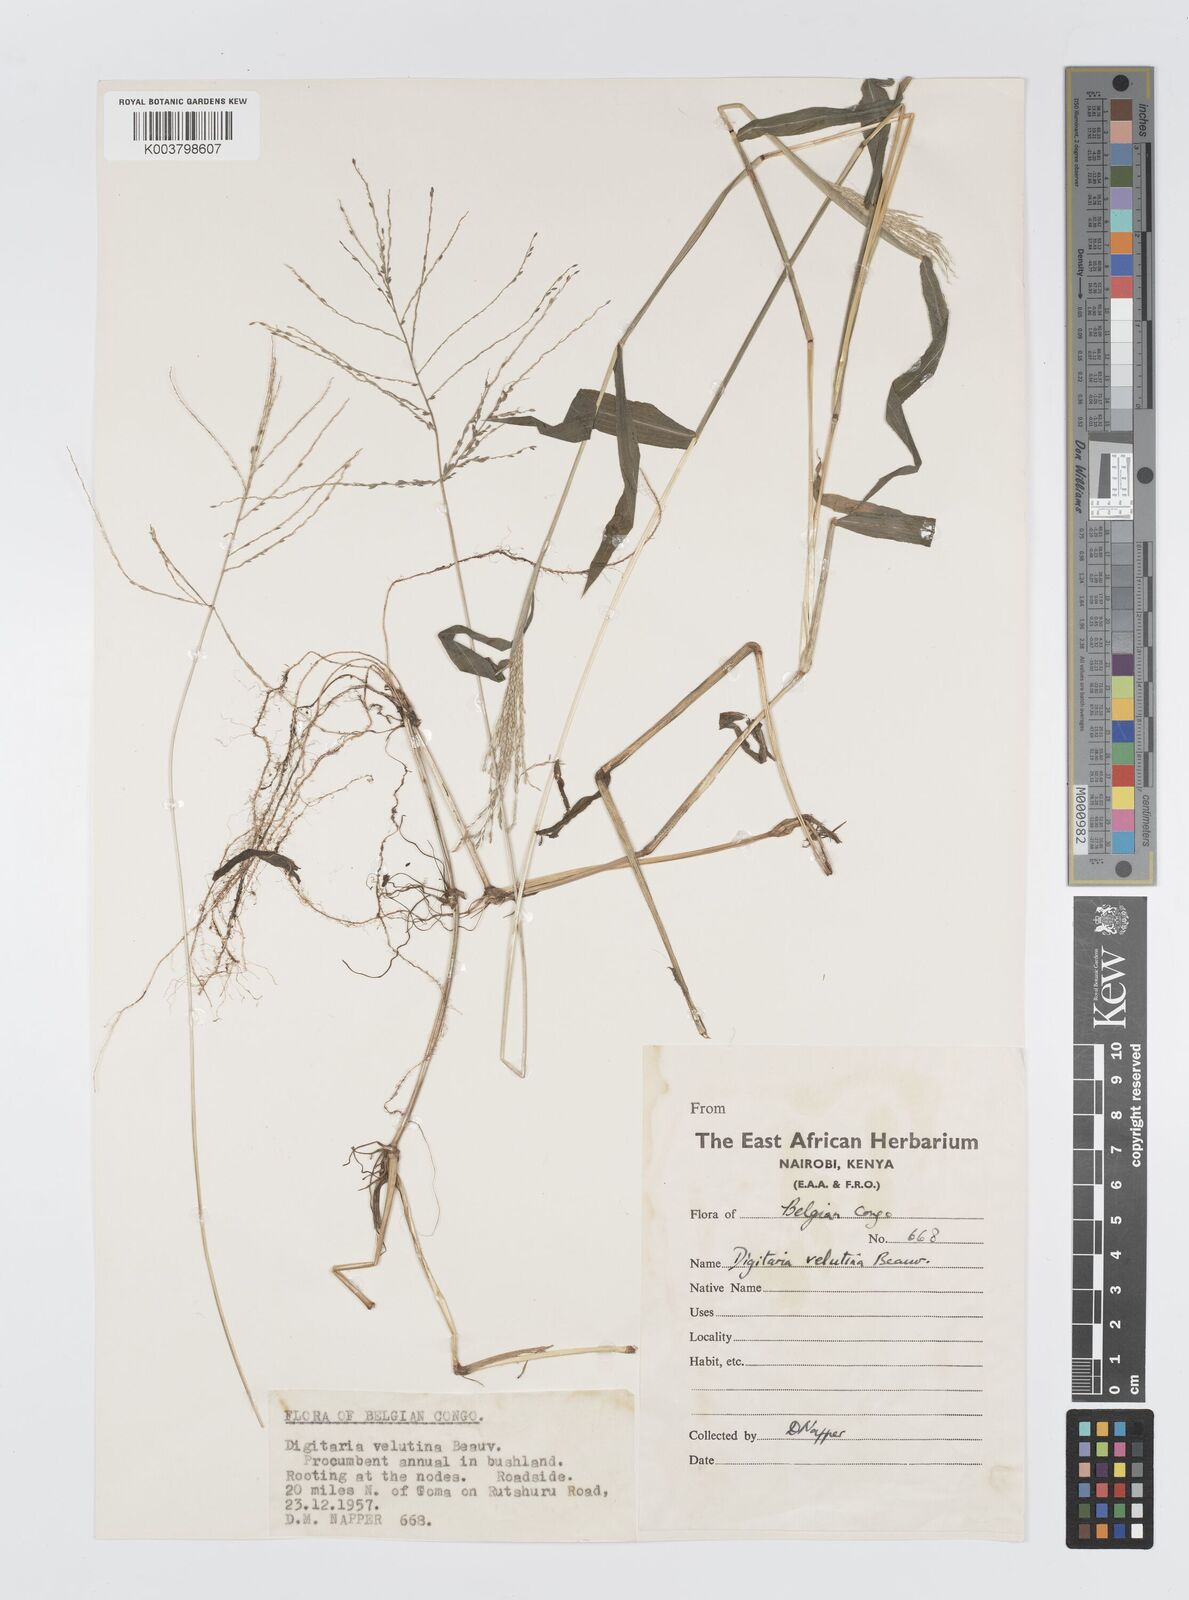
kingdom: Plantae
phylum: Tracheophyta
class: Liliopsida
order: Poales
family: Poaceae
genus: Digitaria
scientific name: Digitaria velutina
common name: Long-plume finger grass
